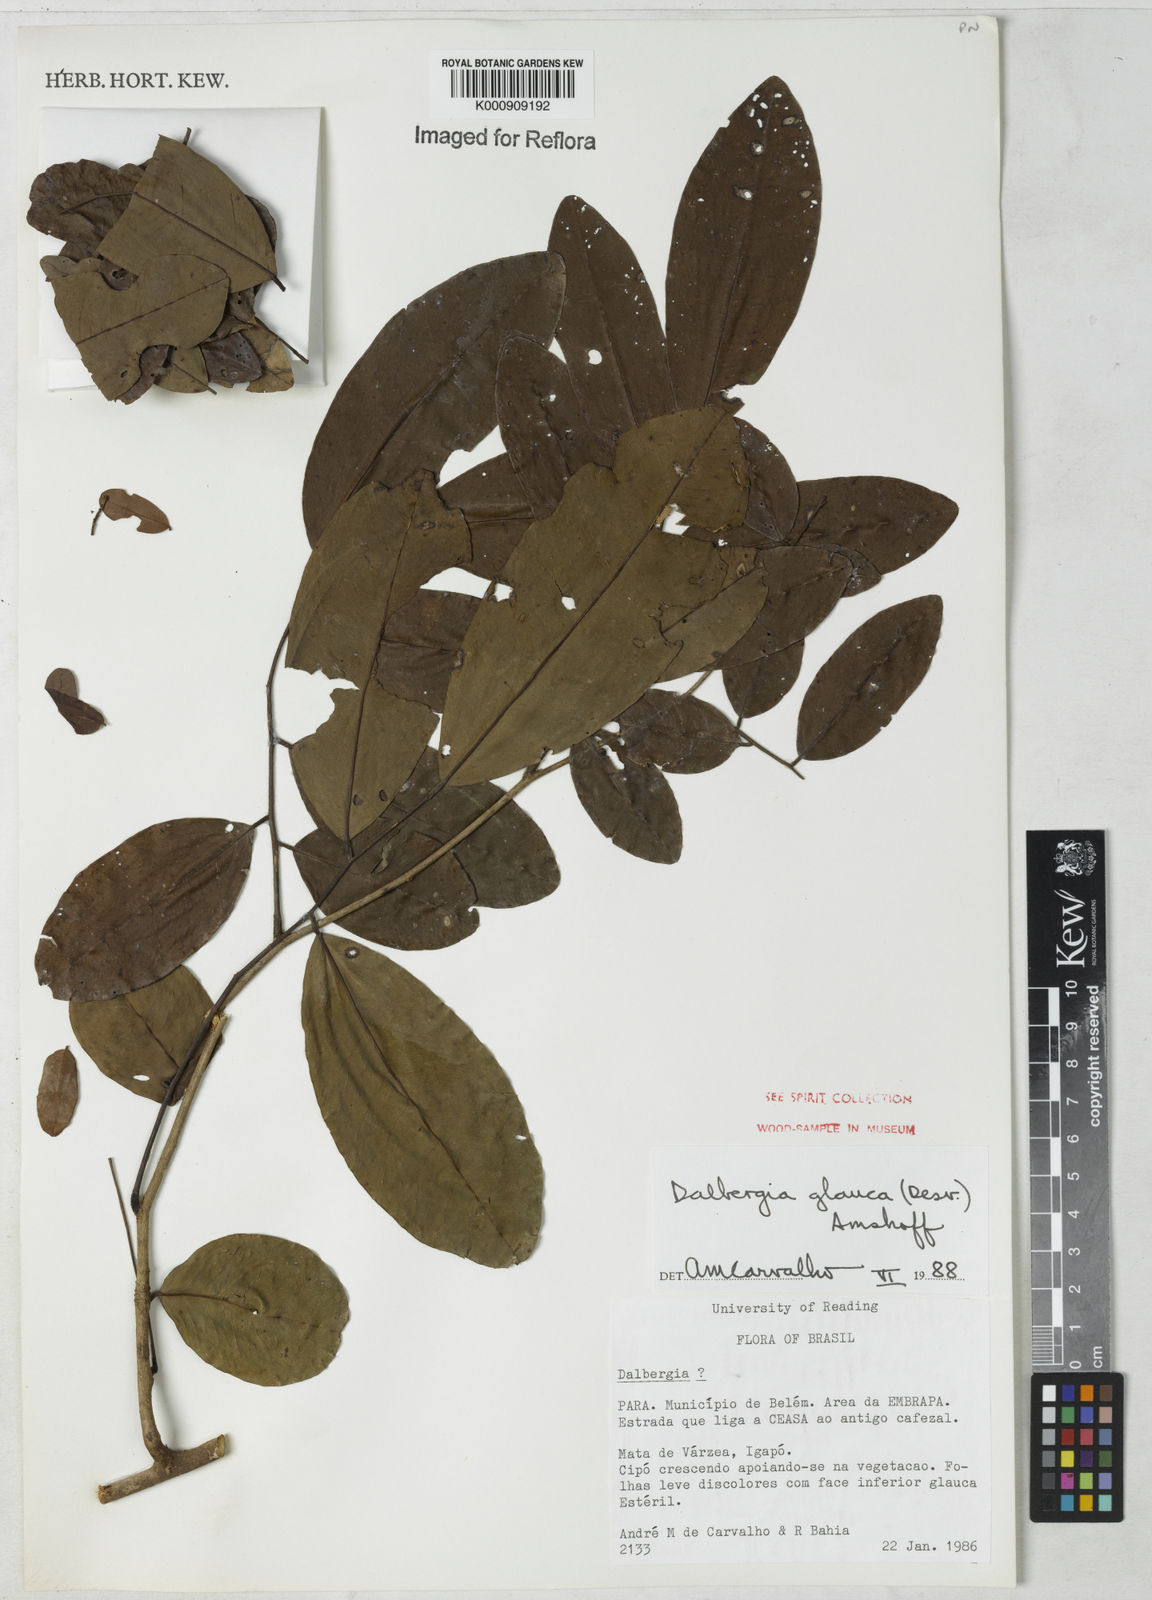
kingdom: Plantae
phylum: Tracheophyta
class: Magnoliopsida
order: Fabales
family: Fabaceae
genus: Dalbergia
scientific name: Dalbergia atropurpurea
